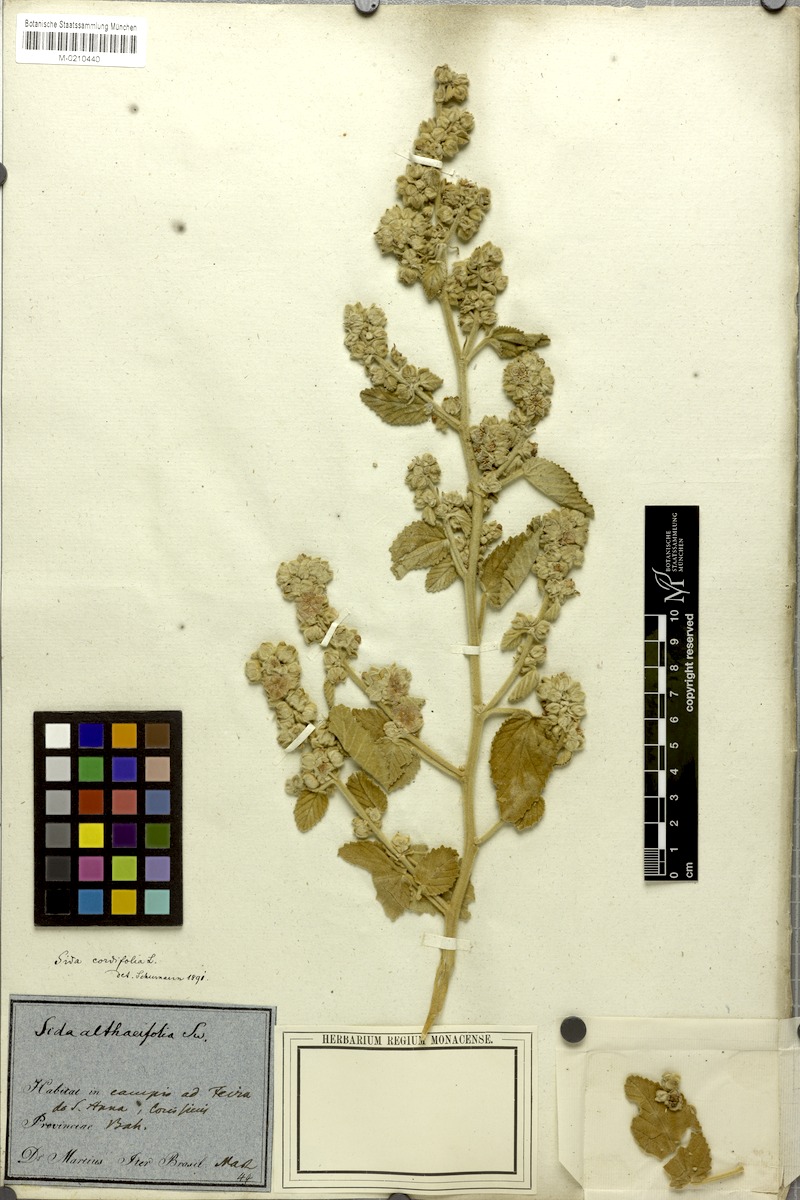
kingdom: Plantae
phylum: Tracheophyta
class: Magnoliopsida
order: Malvales
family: Malvaceae
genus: Sida
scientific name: Sida cordifolia
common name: Ilima
